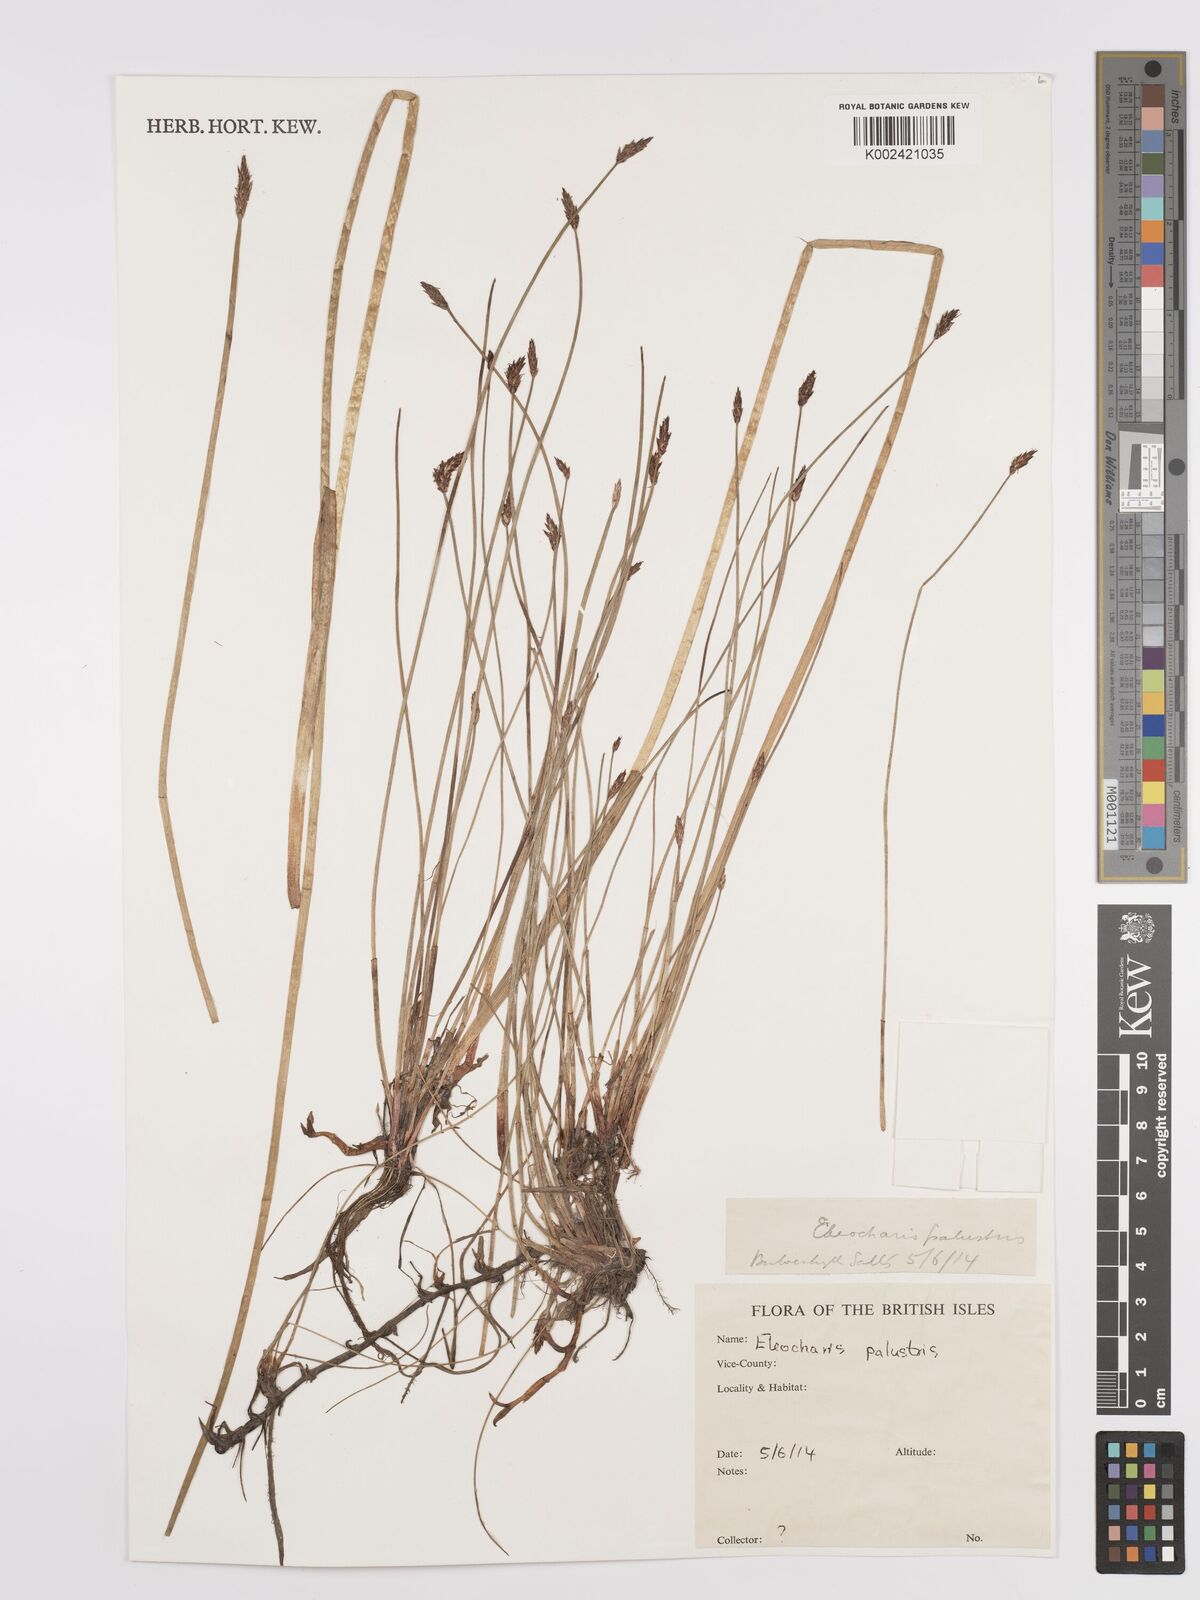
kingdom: Plantae
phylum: Tracheophyta
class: Liliopsida
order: Poales
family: Cyperaceae
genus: Eleocharis
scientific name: Eleocharis palustris
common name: Common spike-rush
